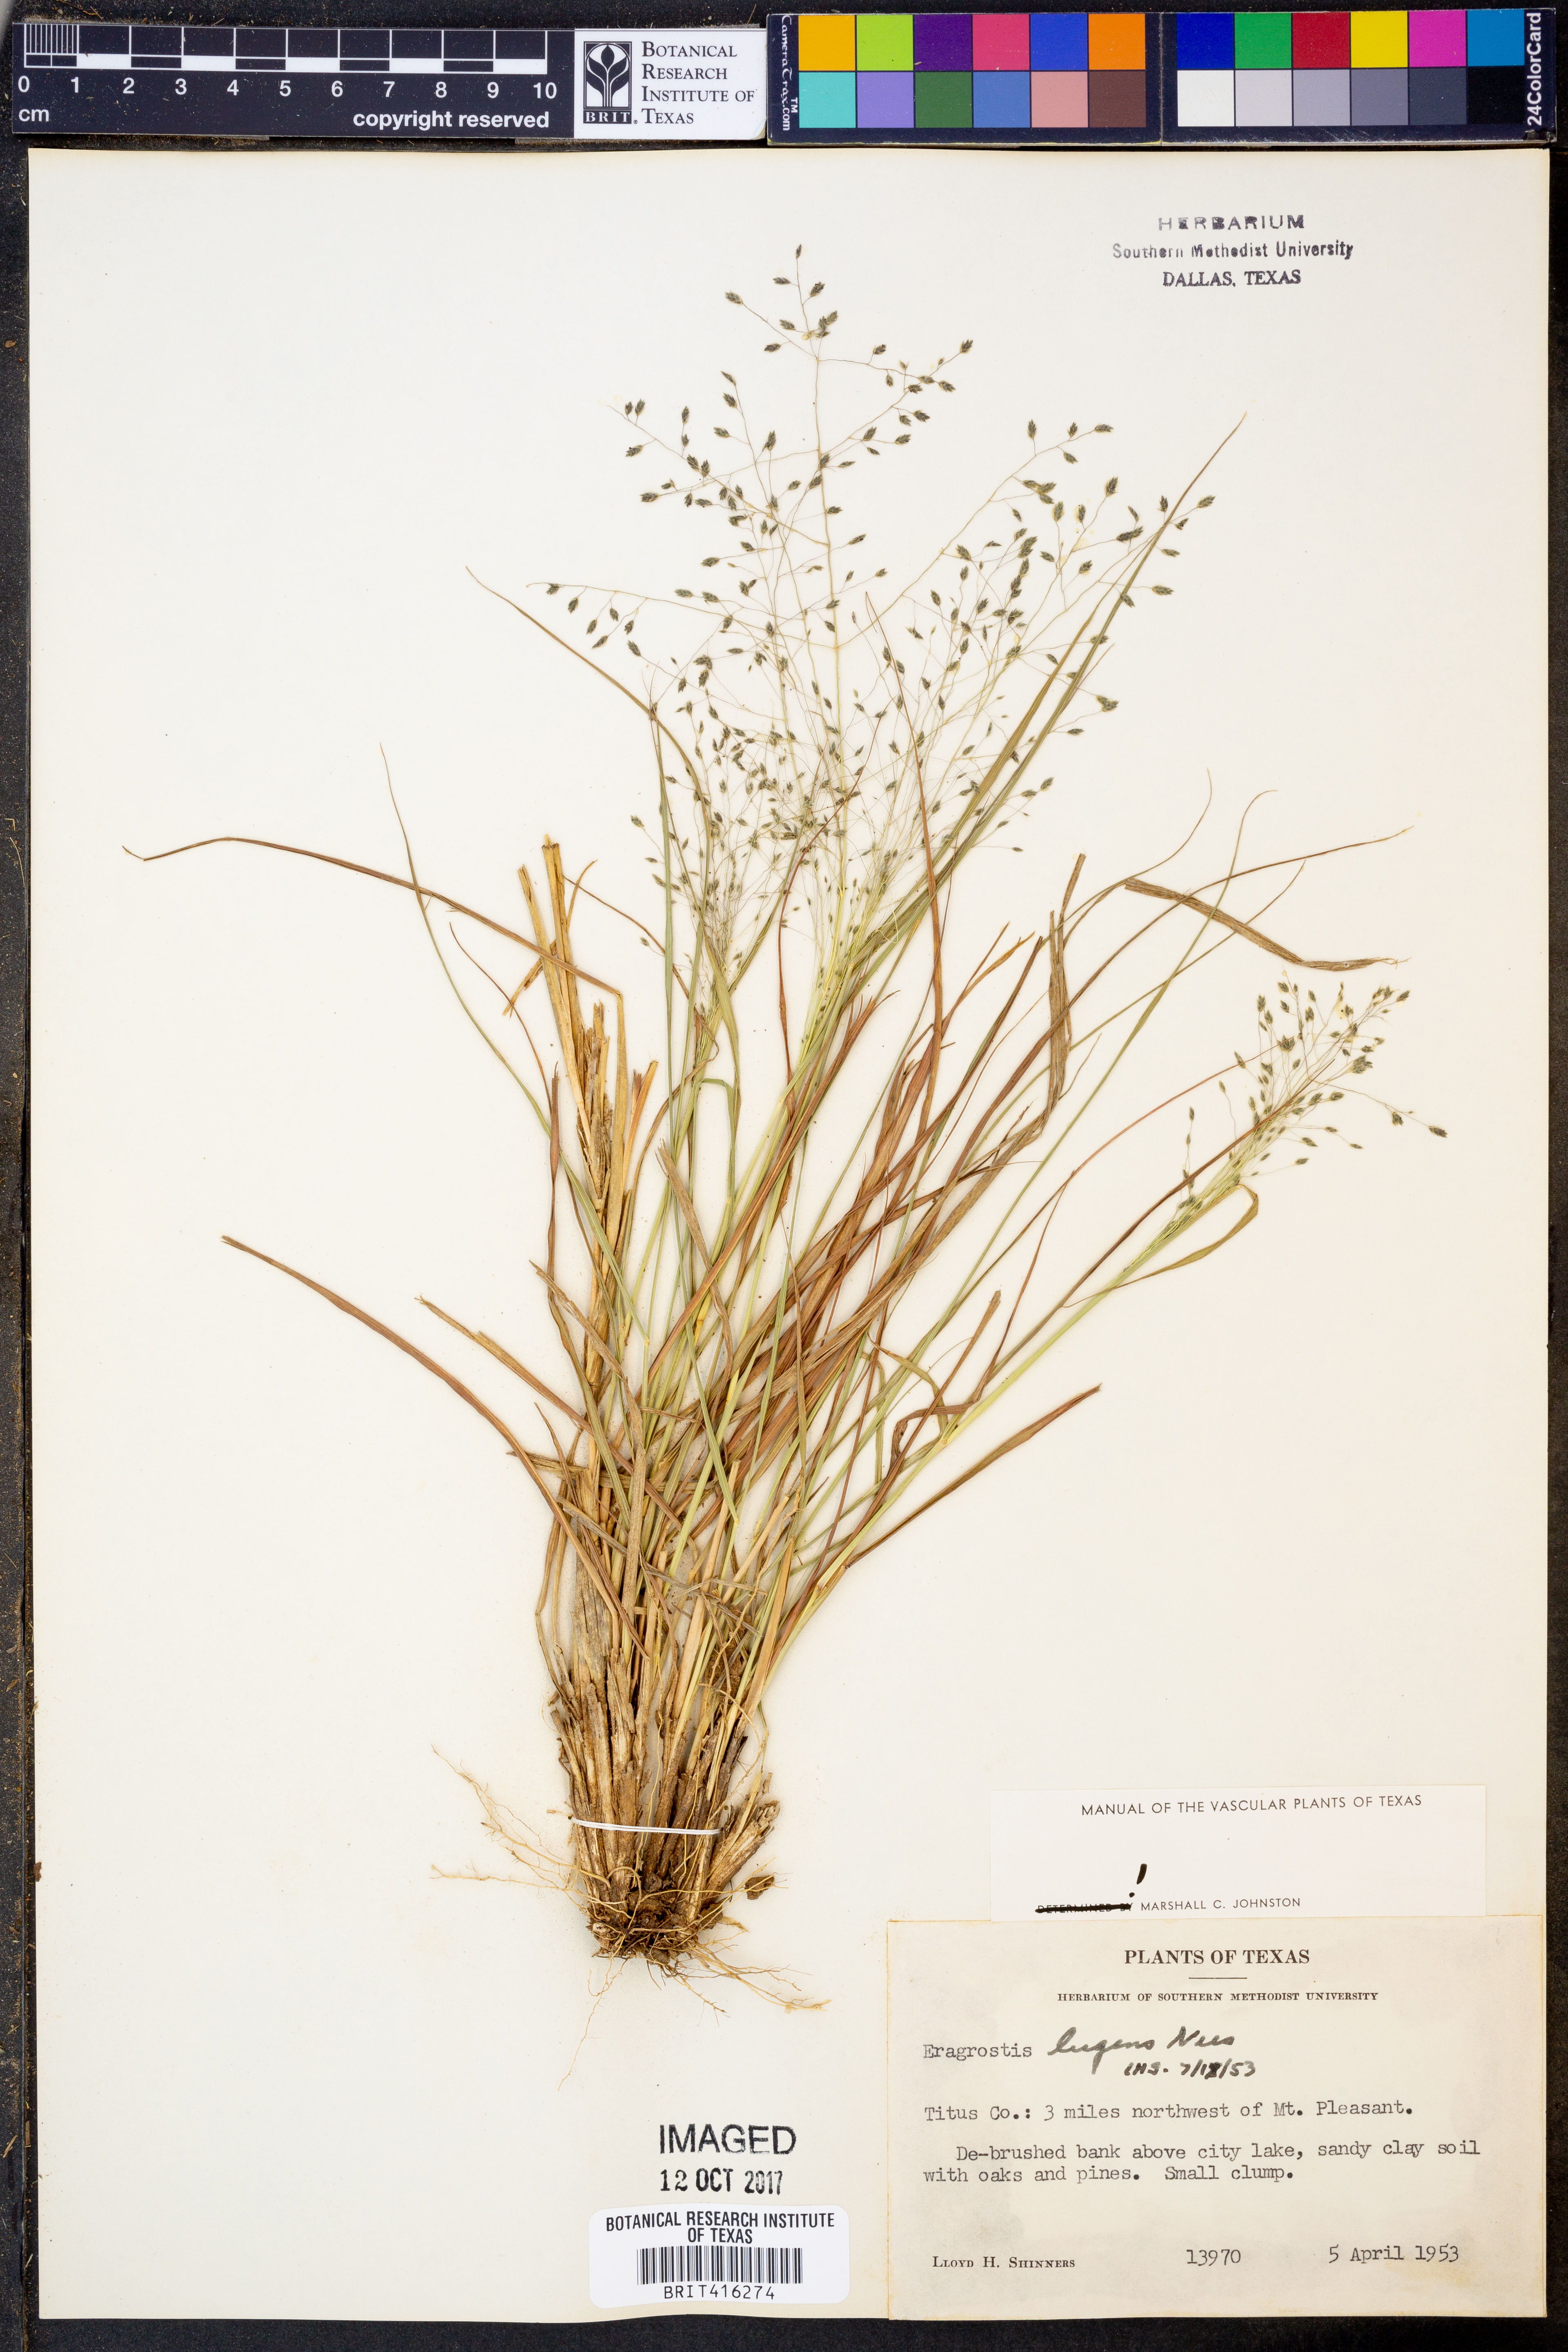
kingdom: Plantae
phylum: Tracheophyta
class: Liliopsida
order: Poales
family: Poaceae
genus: Eragrostis
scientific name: Eragrostis capillaris
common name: Hair-like lovegrass
